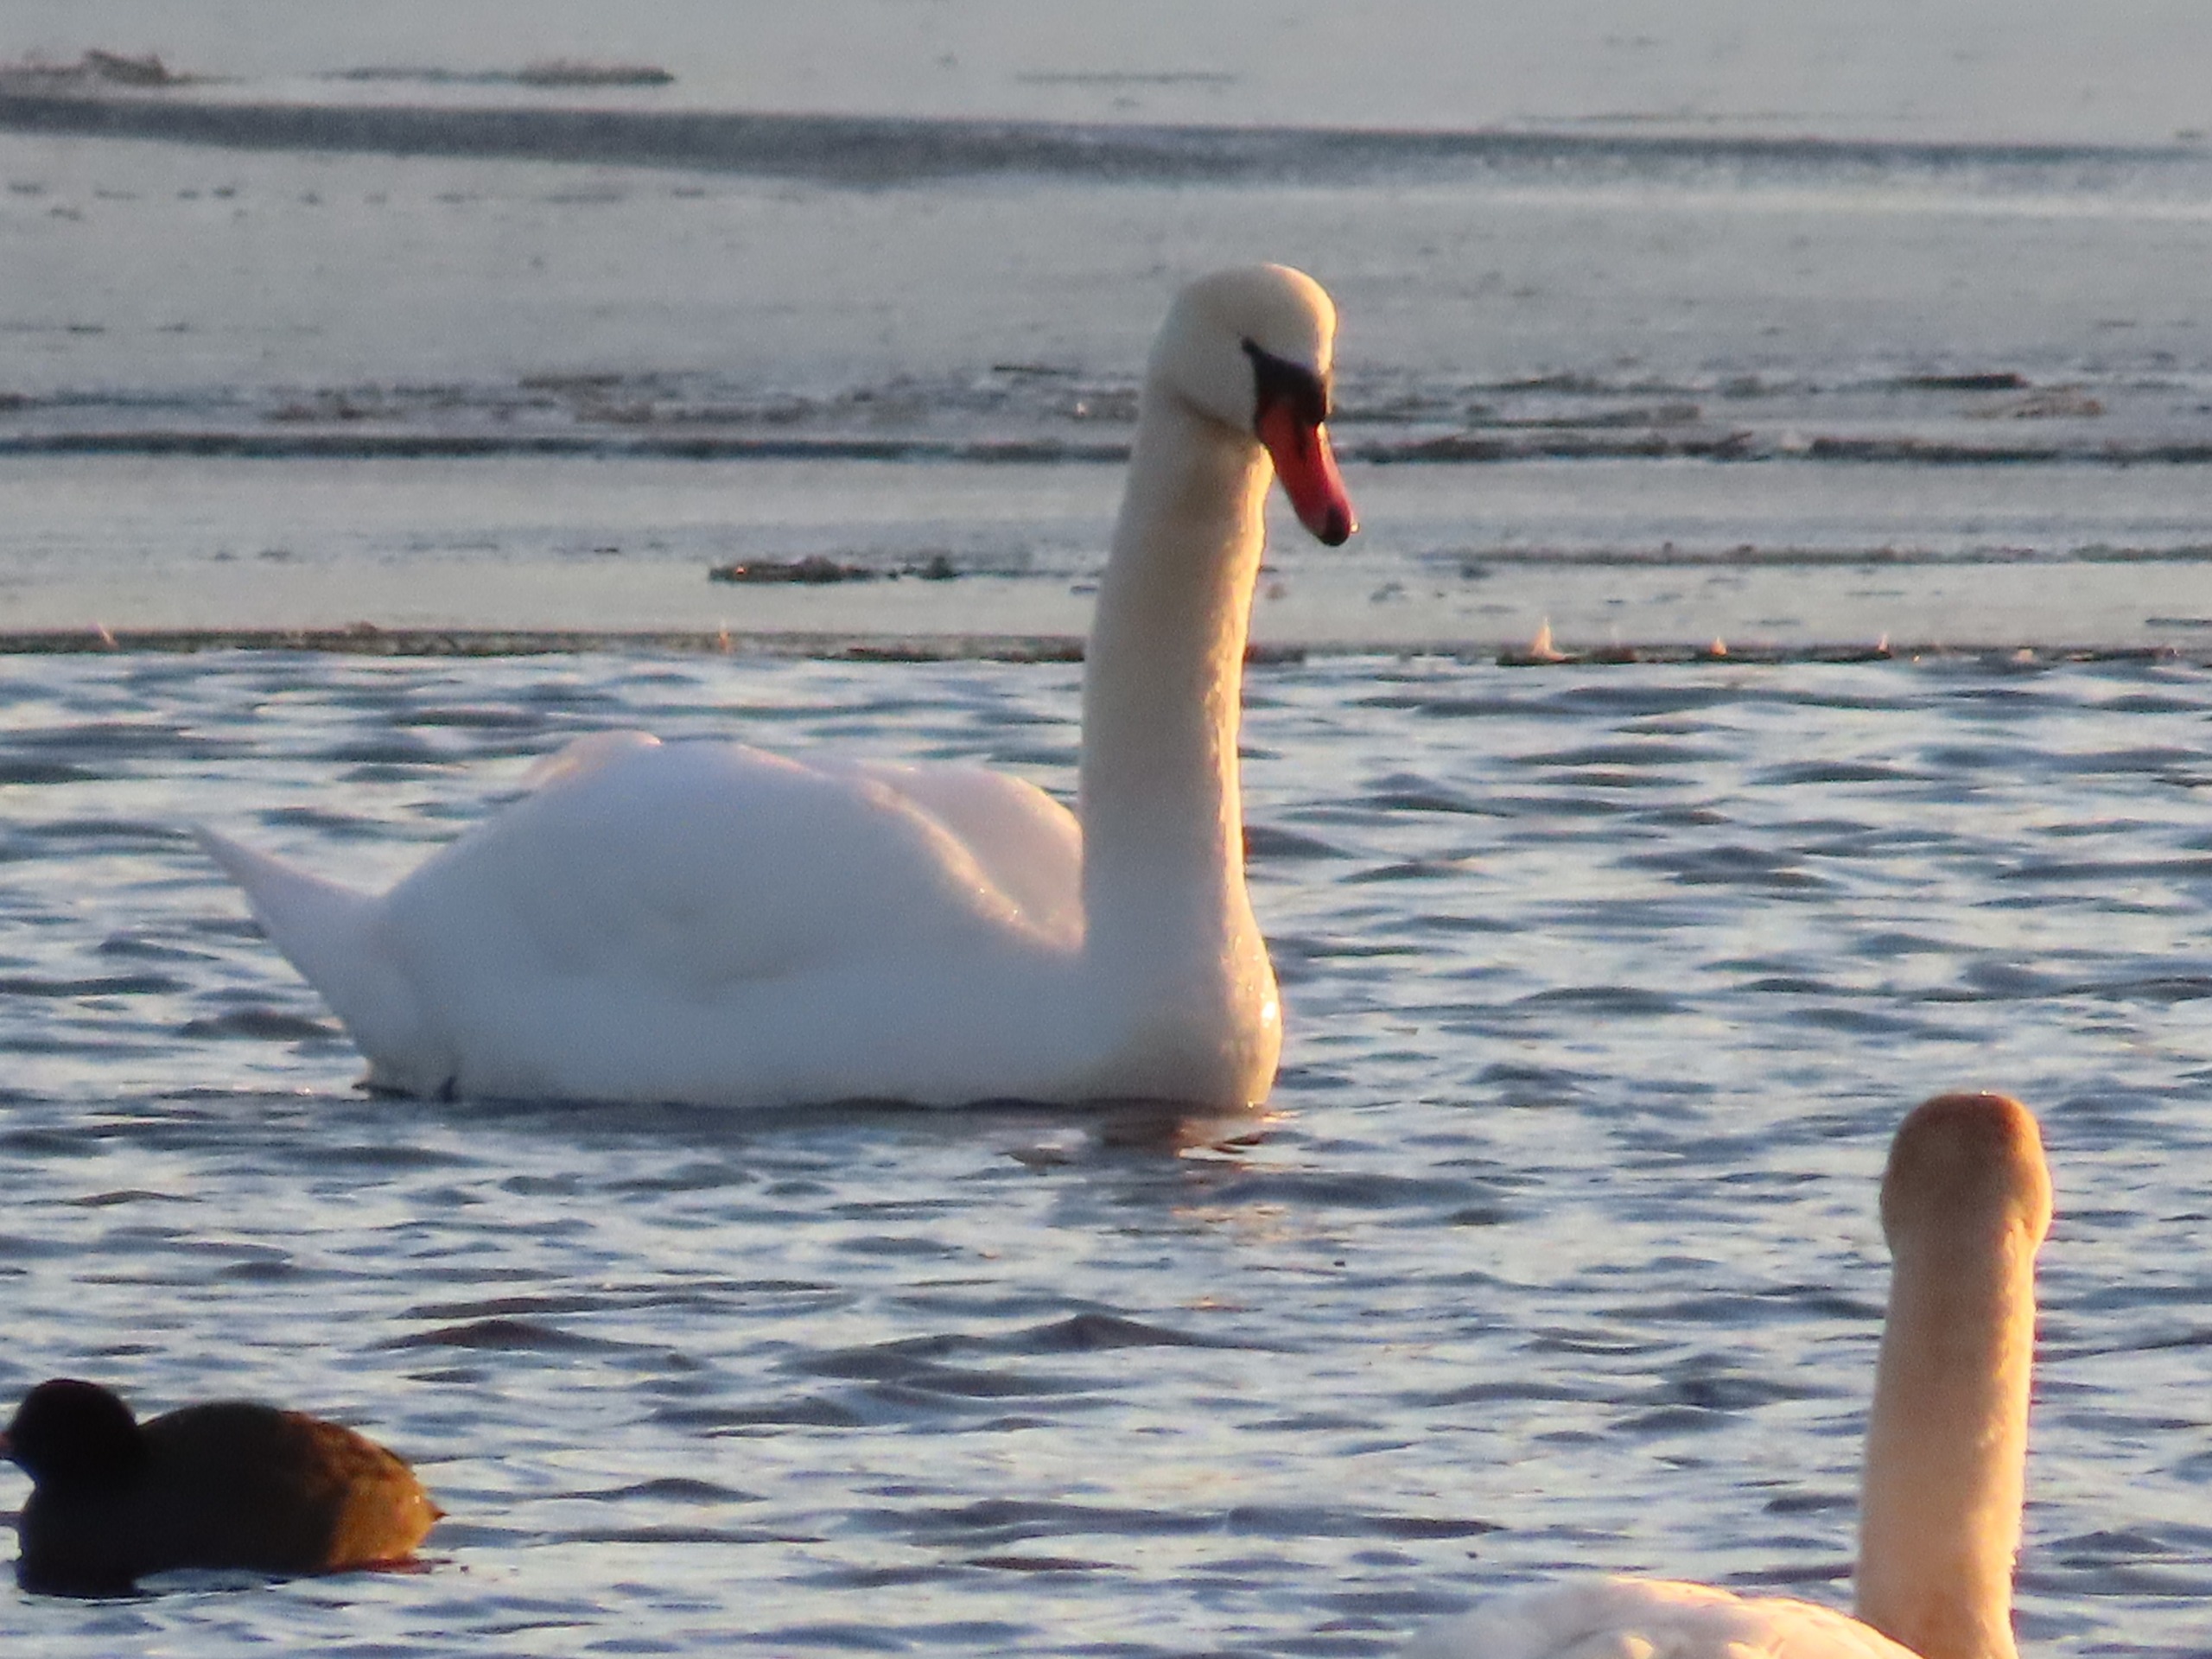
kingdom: Animalia
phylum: Chordata
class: Aves
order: Anseriformes
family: Anatidae
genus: Cygnus
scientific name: Cygnus olor
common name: Knopsvane
